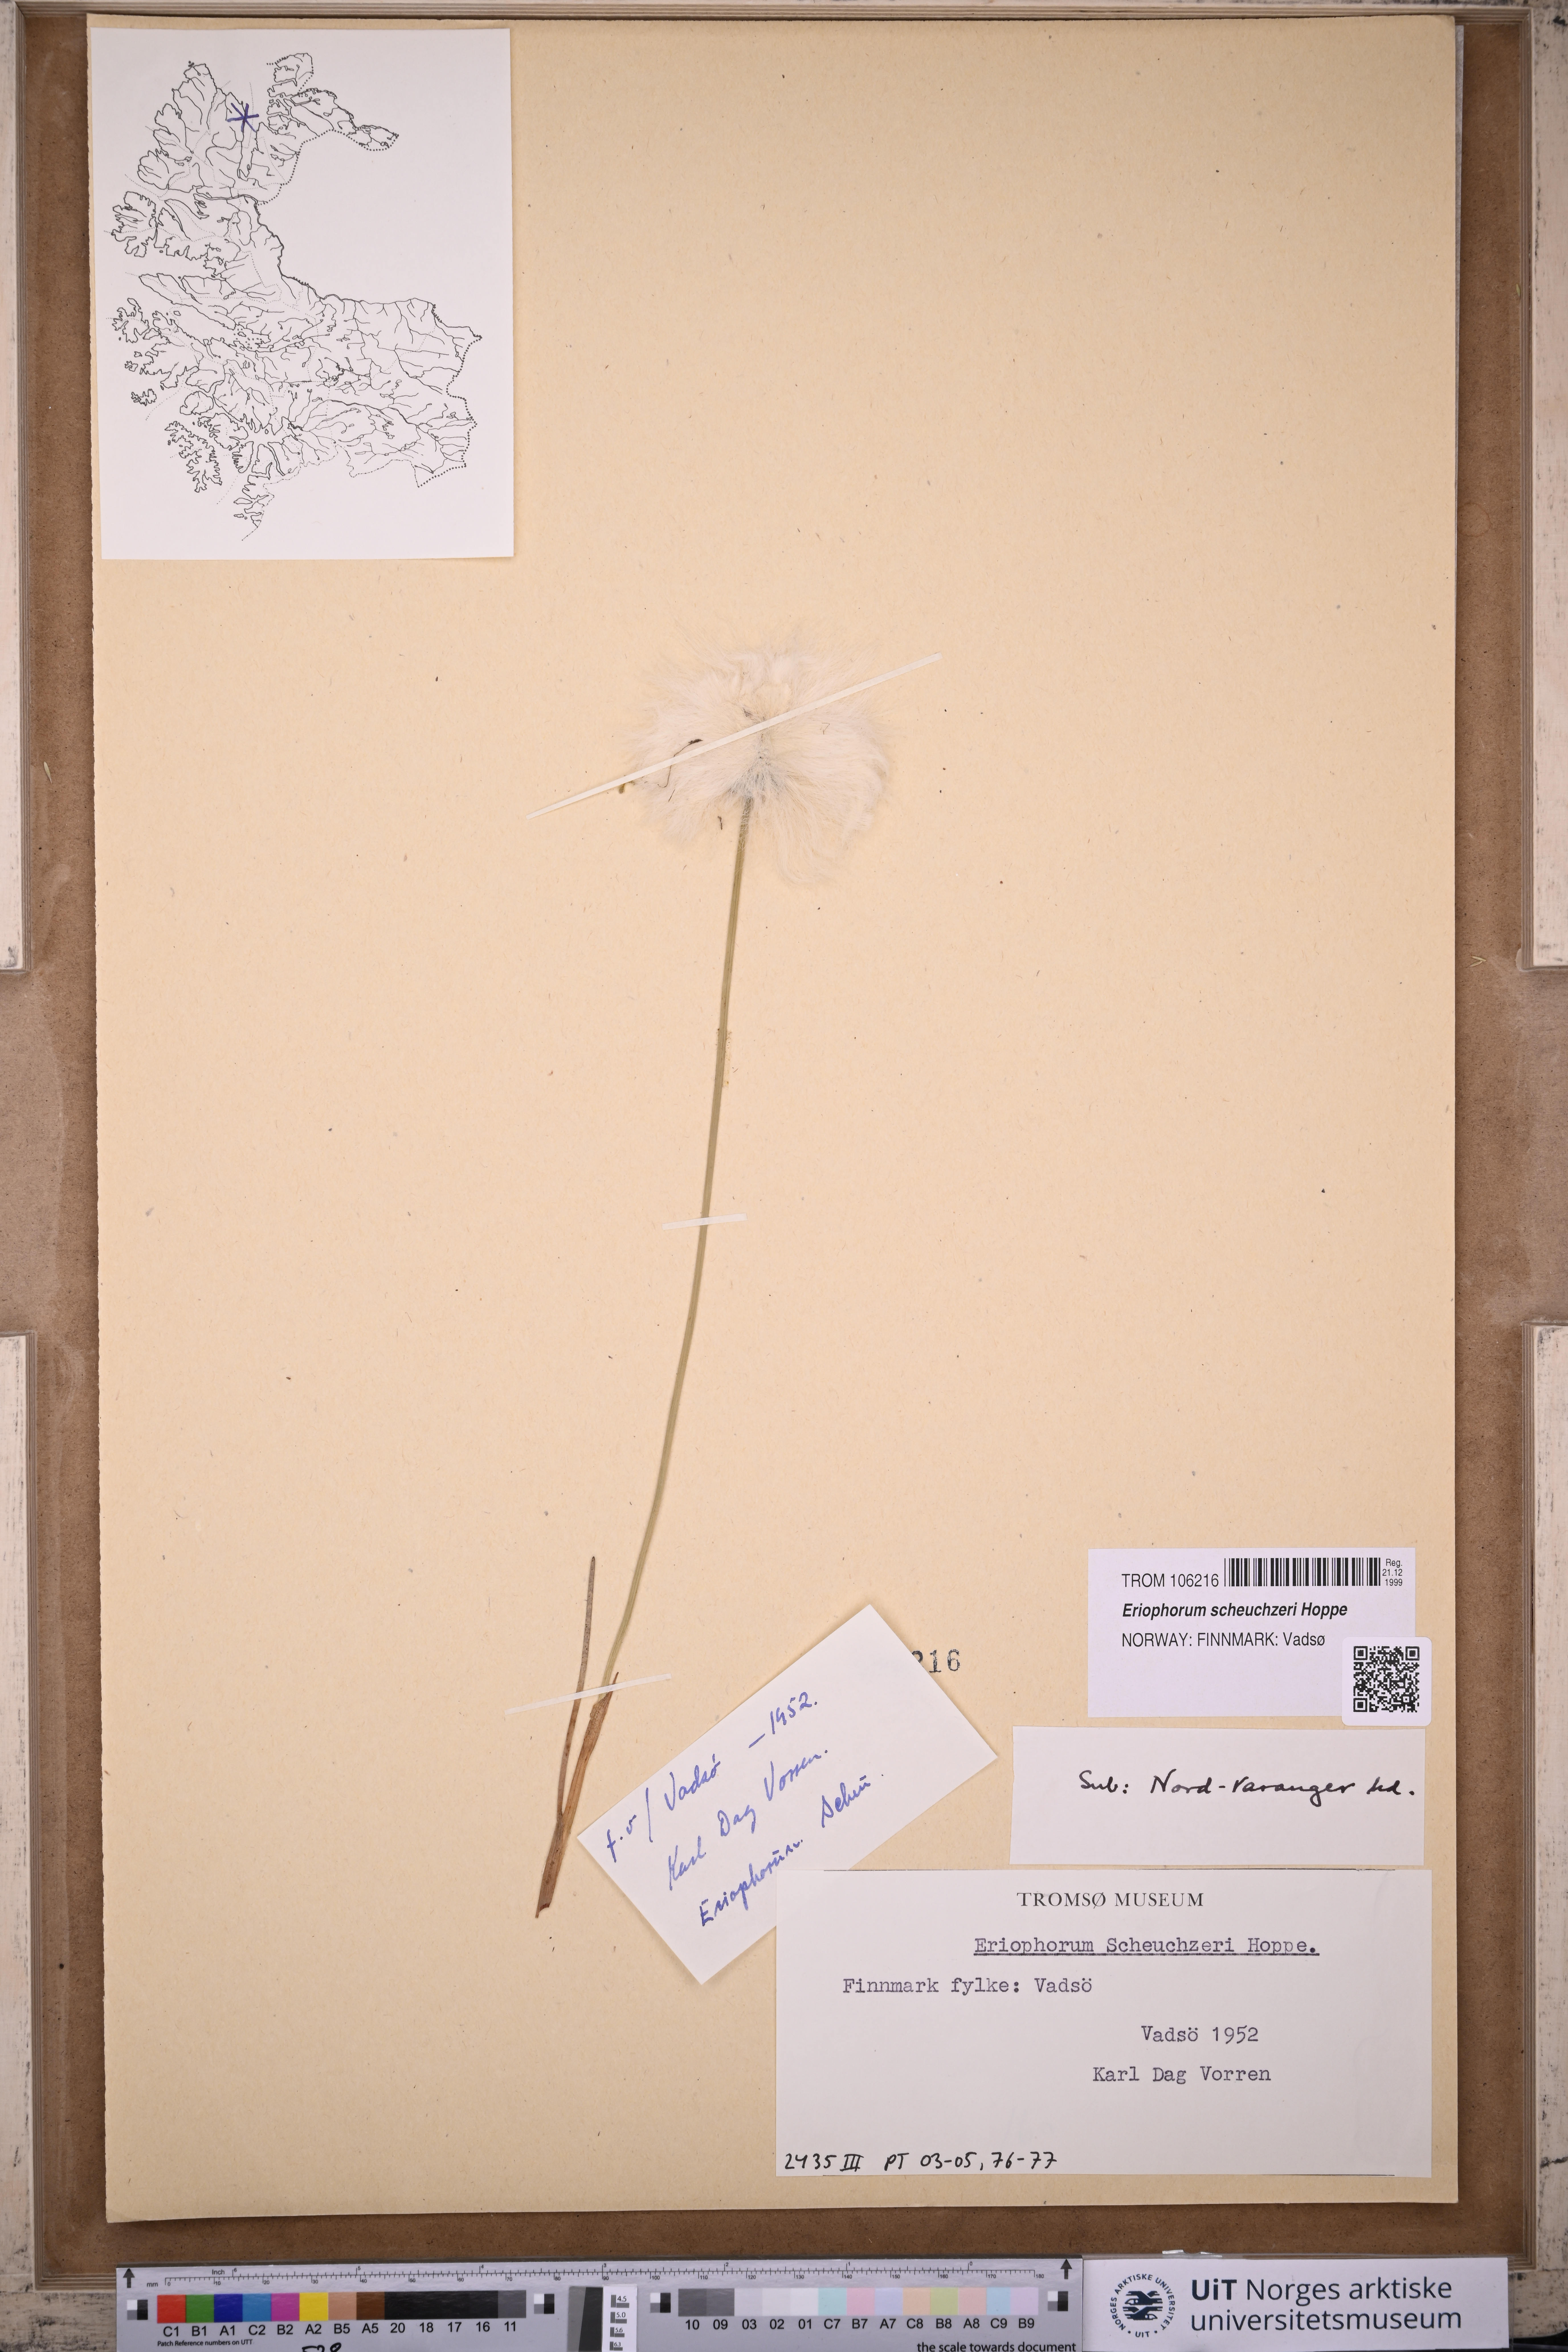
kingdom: Plantae
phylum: Tracheophyta
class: Liliopsida
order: Poales
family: Cyperaceae
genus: Eriophorum
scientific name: Eriophorum scheuchzeri
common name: Scheuchzer's cottongrass
